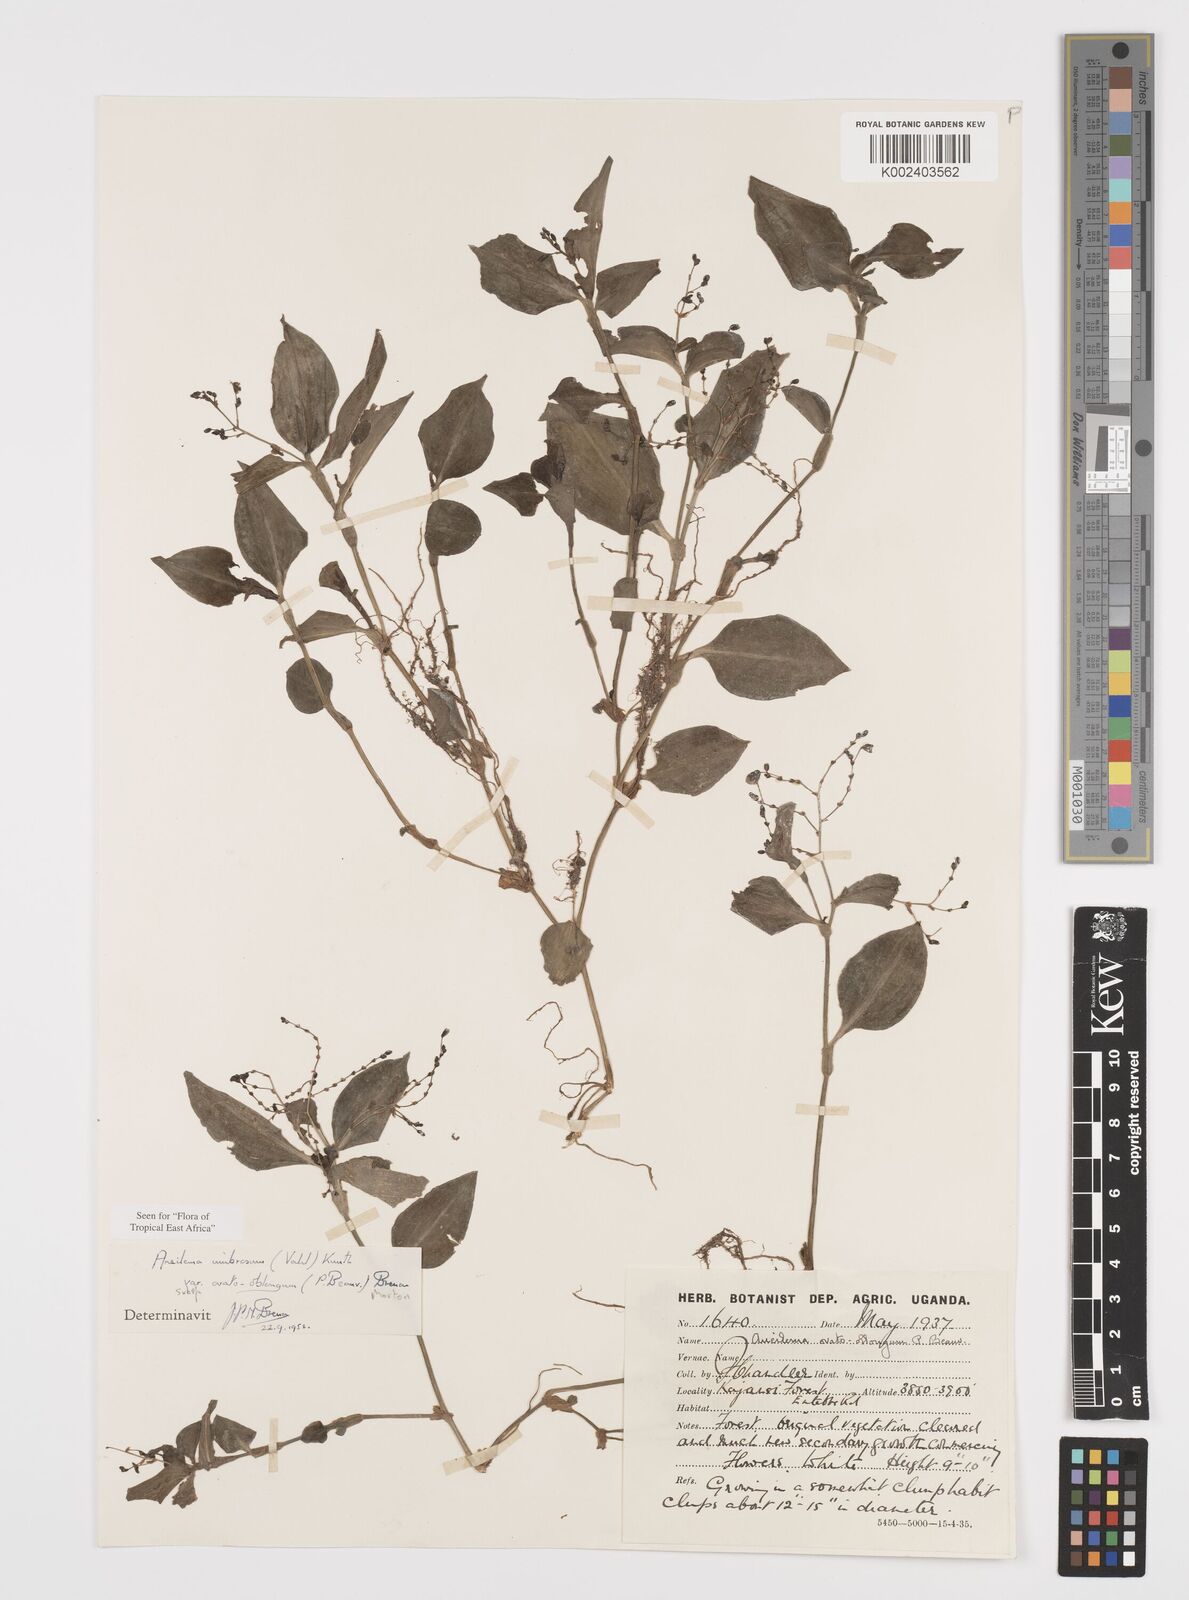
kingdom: Plantae
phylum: Tracheophyta
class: Liliopsida
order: Commelinales
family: Commelinaceae
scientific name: Commelinaceae
